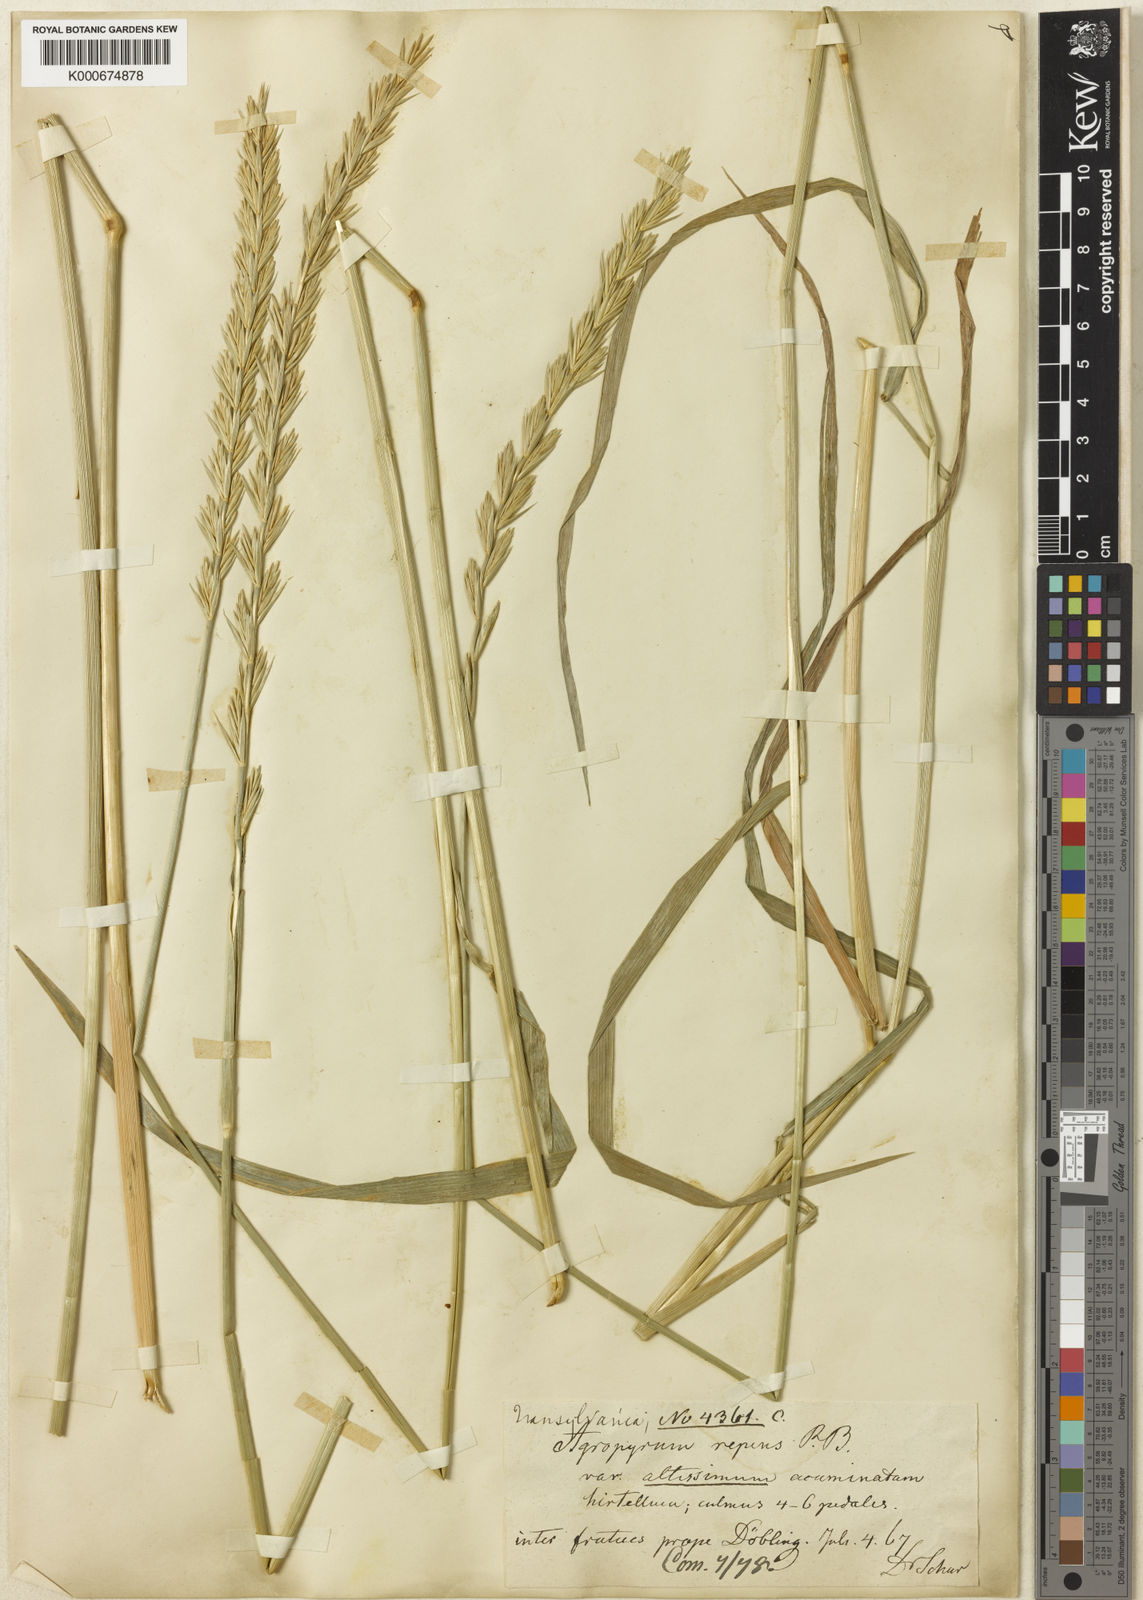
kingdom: Plantae
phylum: Tracheophyta
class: Liliopsida
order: Poales
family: Poaceae
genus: Elymus
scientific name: Elymus repens
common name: Quackgrass
